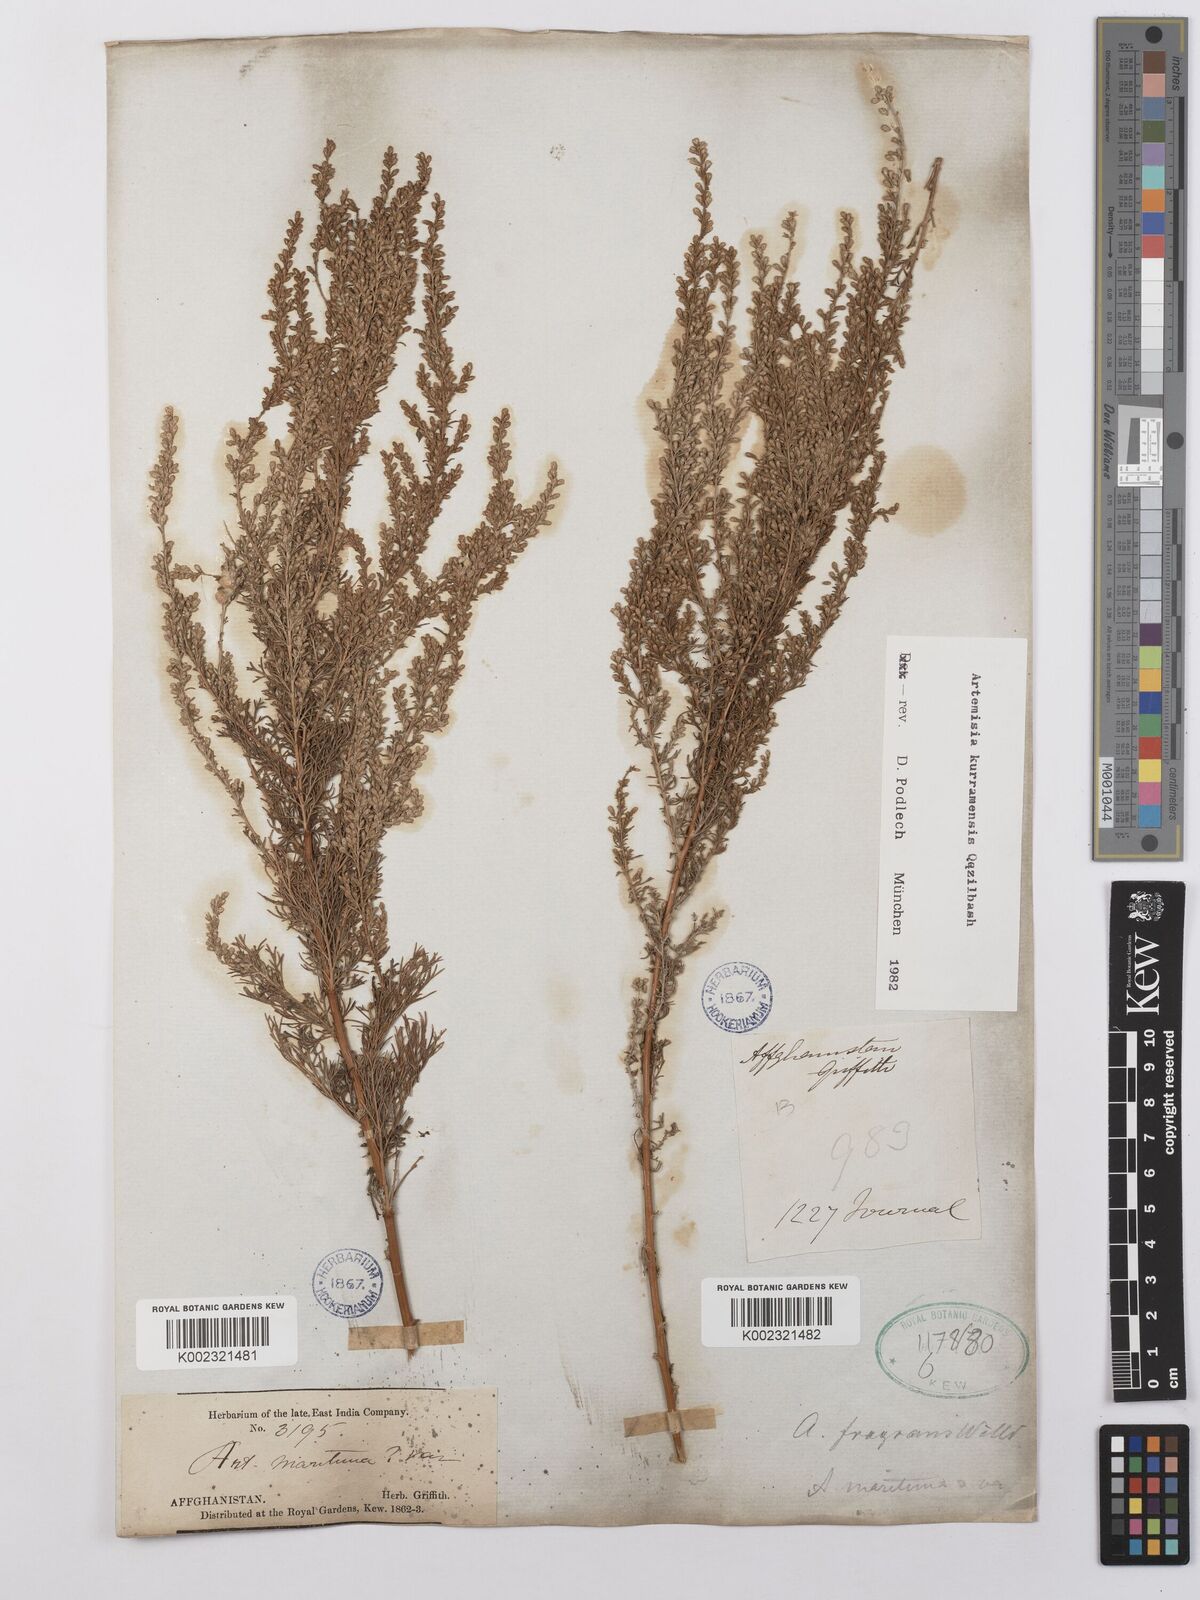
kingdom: Plantae
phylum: Tracheophyta
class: Magnoliopsida
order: Asterales
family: Asteraceae
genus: Artemisia
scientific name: Artemisia kurramensis
